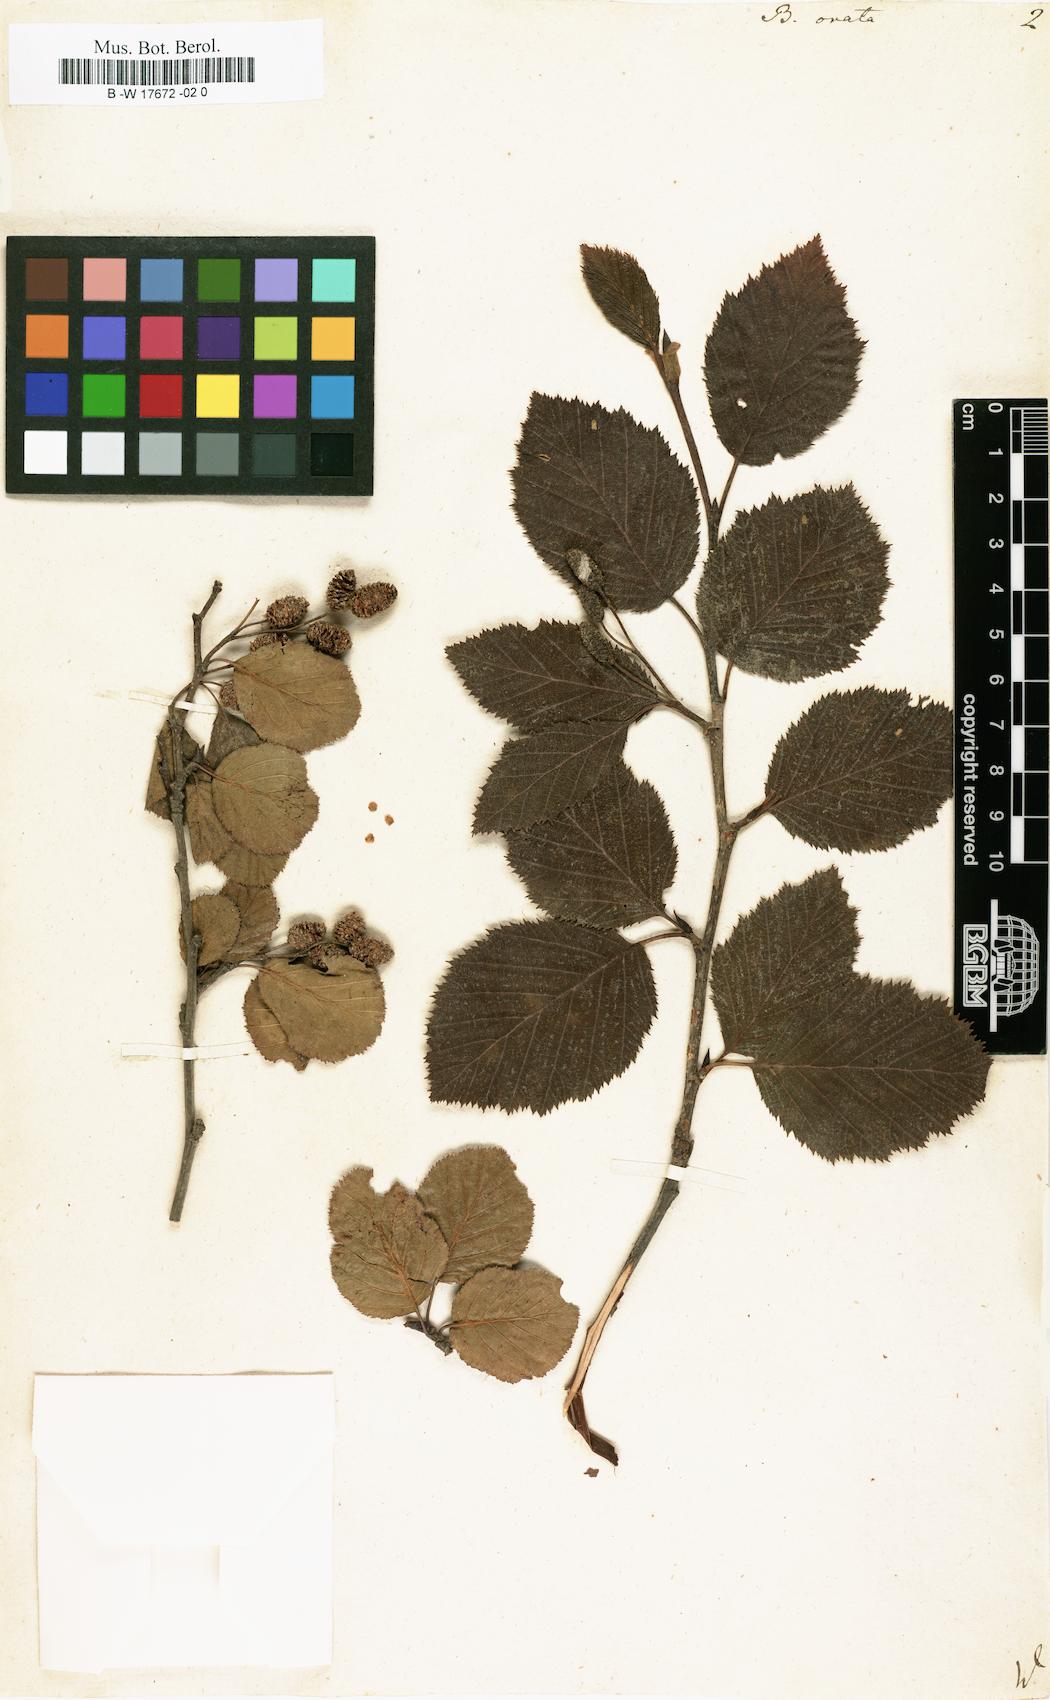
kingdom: Plantae
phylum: Tracheophyta
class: Magnoliopsida
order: Fagales
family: Betulaceae
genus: Betula
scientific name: Betula pubescens
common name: Downy birch
